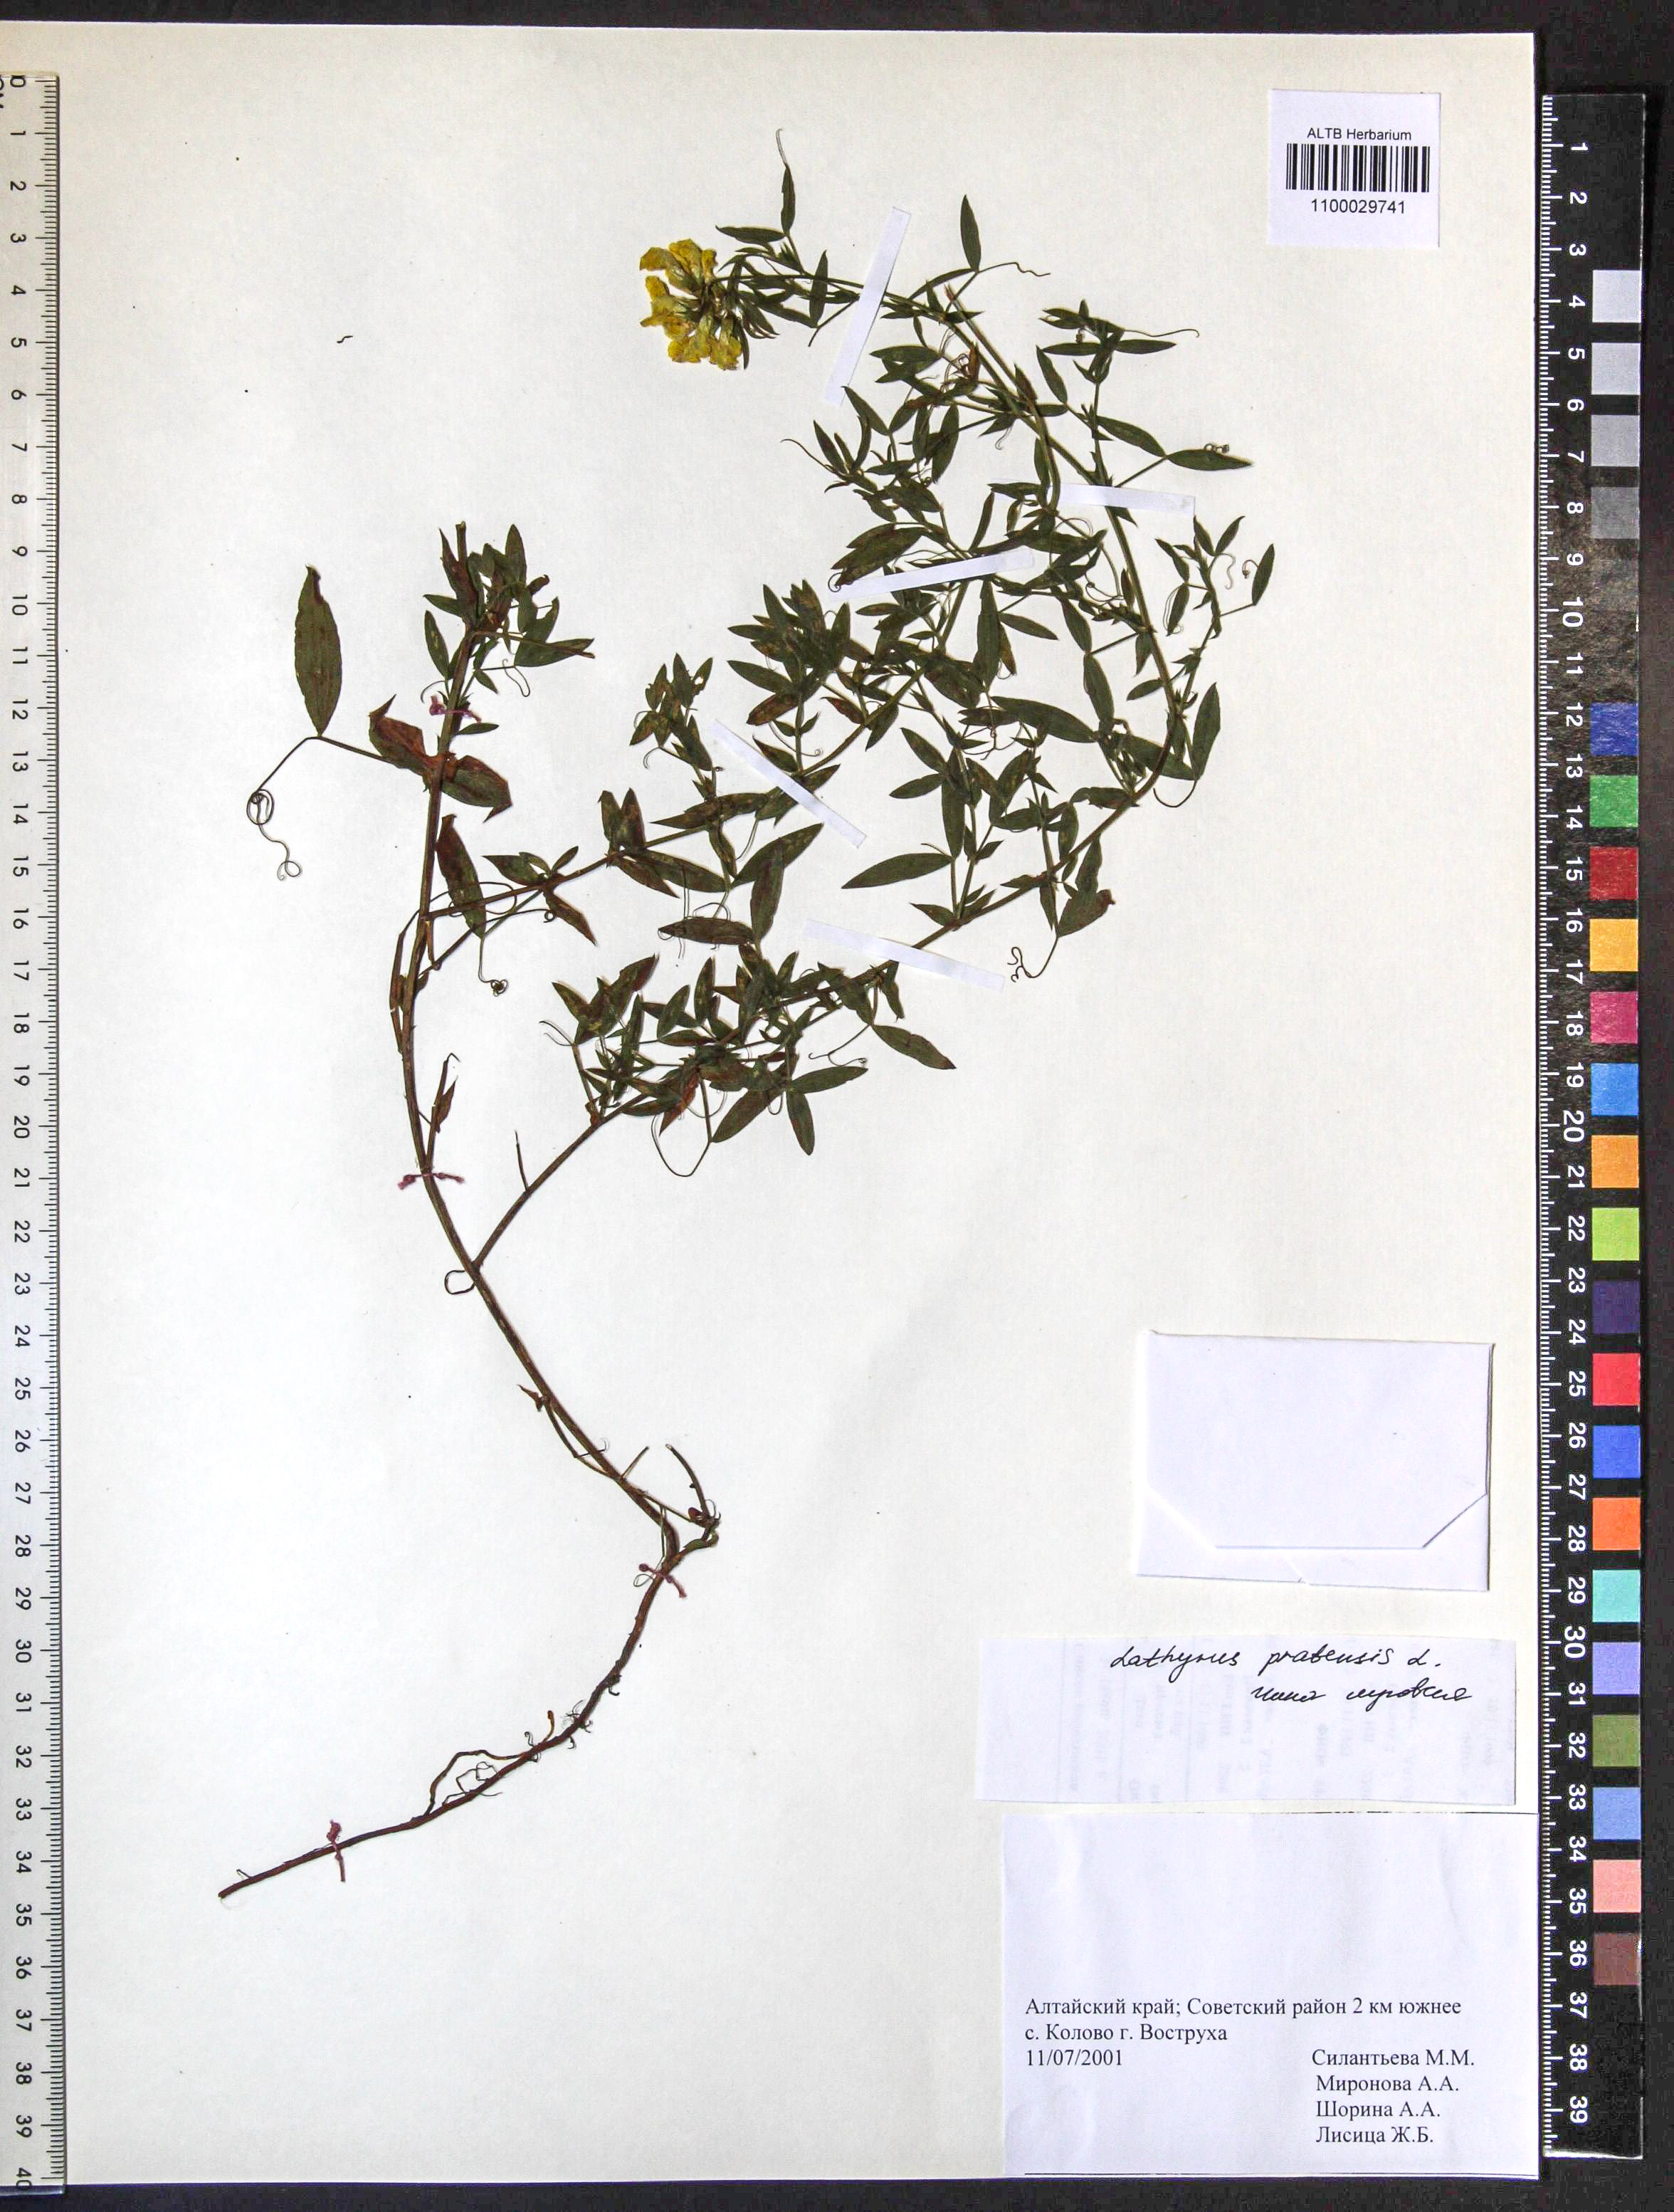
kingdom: Plantae
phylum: Tracheophyta
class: Magnoliopsida
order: Fabales
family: Fabaceae
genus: Lathyrus
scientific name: Lathyrus pratensis
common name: Meadow vetchling
